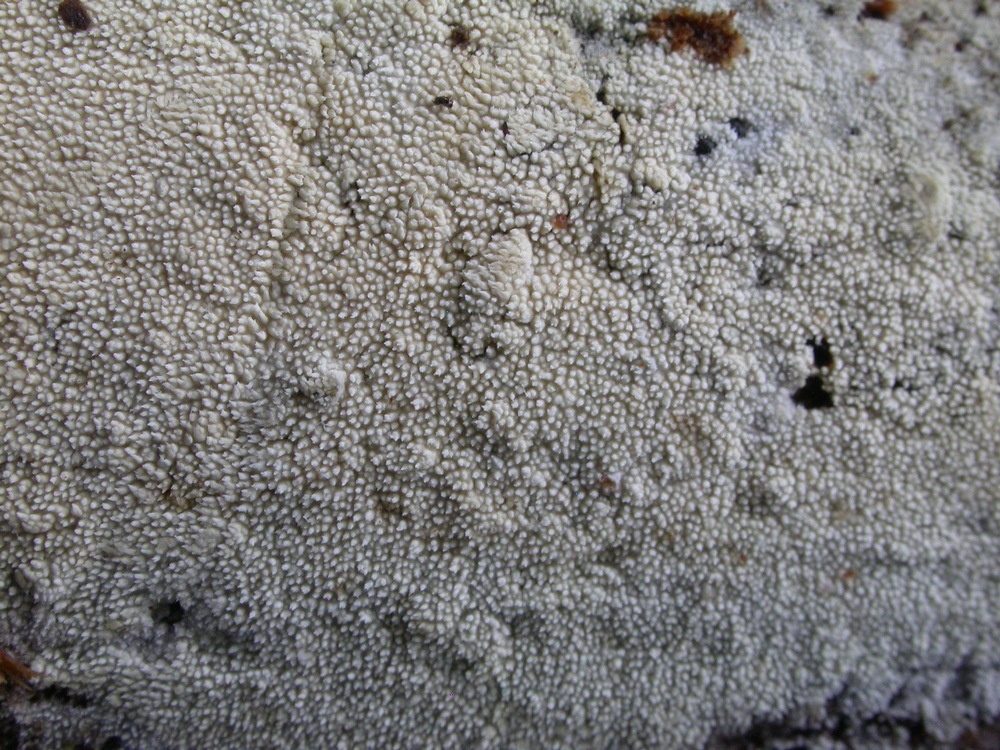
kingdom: Fungi
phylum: Basidiomycota
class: Agaricomycetes
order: Hymenochaetales
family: Schizoporaceae
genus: Xylodon
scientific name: Xylodon nesporii
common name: fintandet tandsvamp
